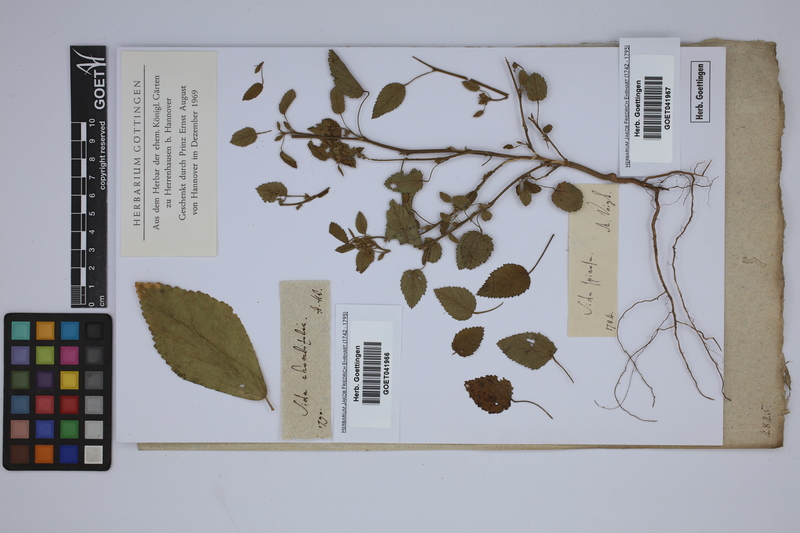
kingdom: Plantae
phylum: Tracheophyta
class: Magnoliopsida
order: Malvales
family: Malvaceae
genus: Sida
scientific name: Sida rhombifolia
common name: Queensland-hemp
